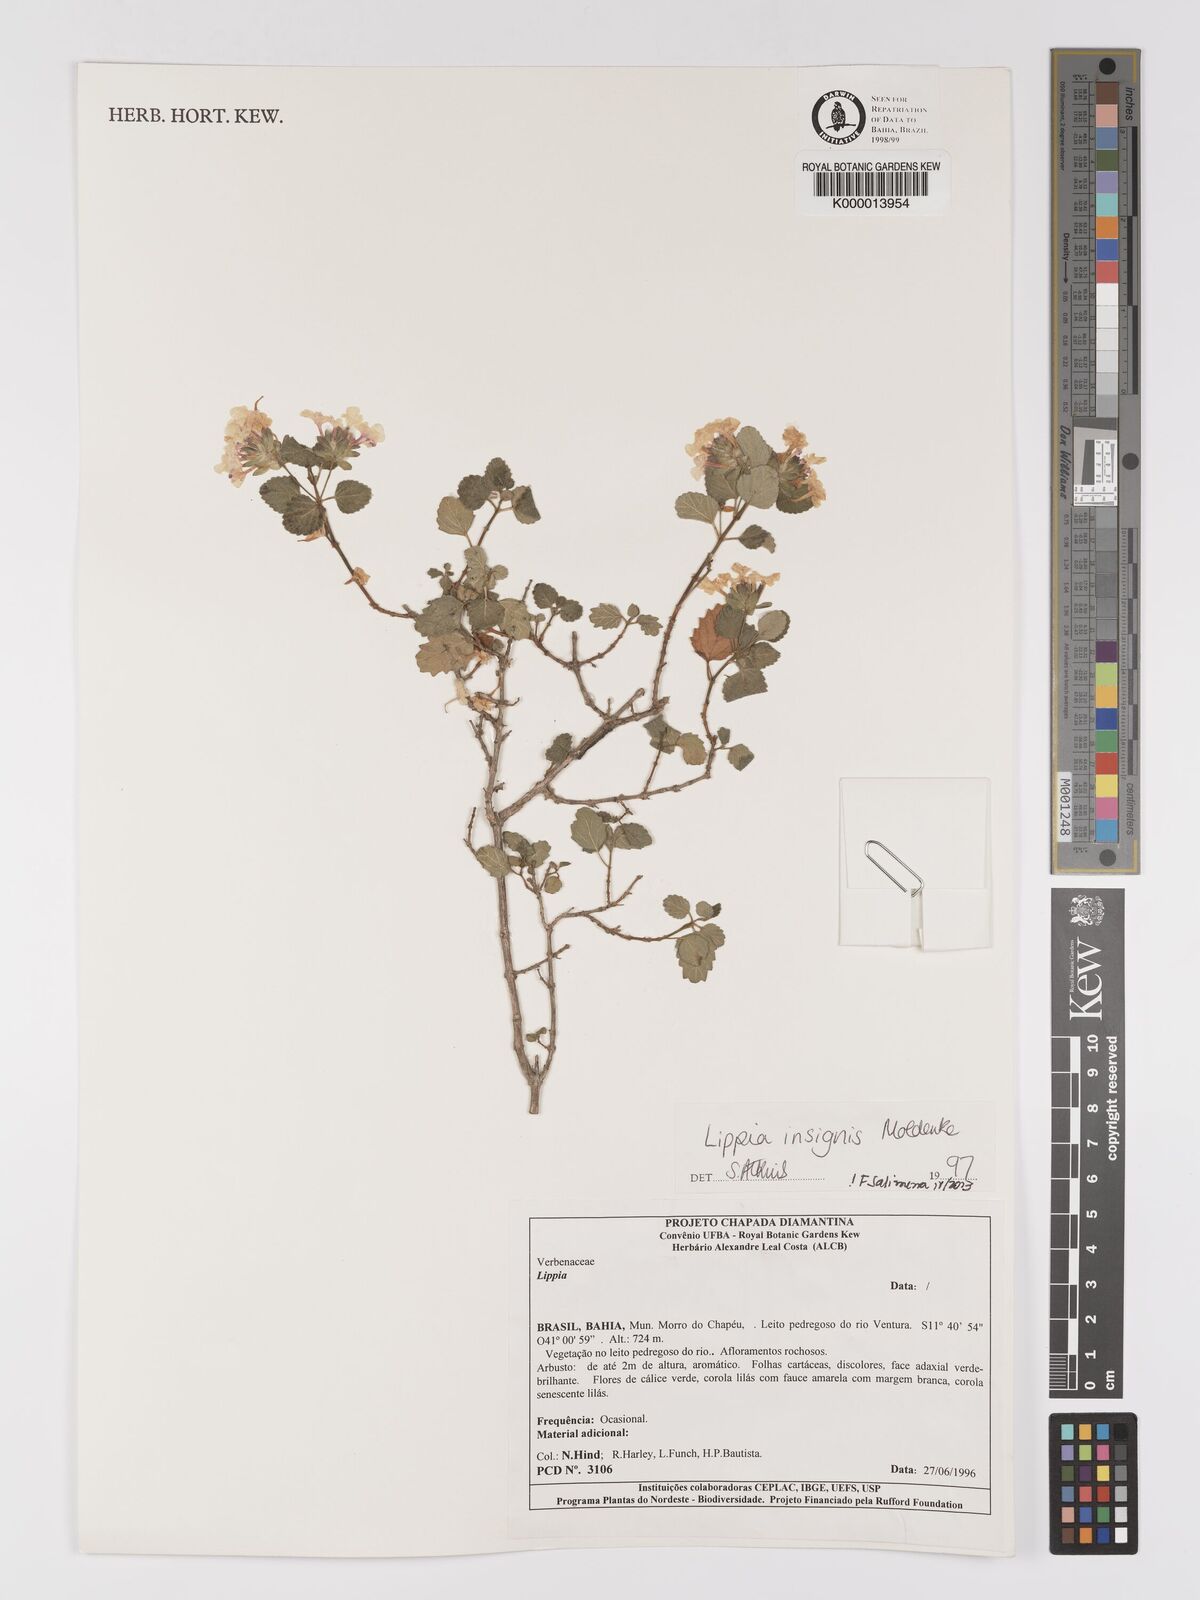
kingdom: Plantae
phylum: Tracheophyta
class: Magnoliopsida
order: Lamiales
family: Verbenaceae
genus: Lippia
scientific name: Lippia insignis
